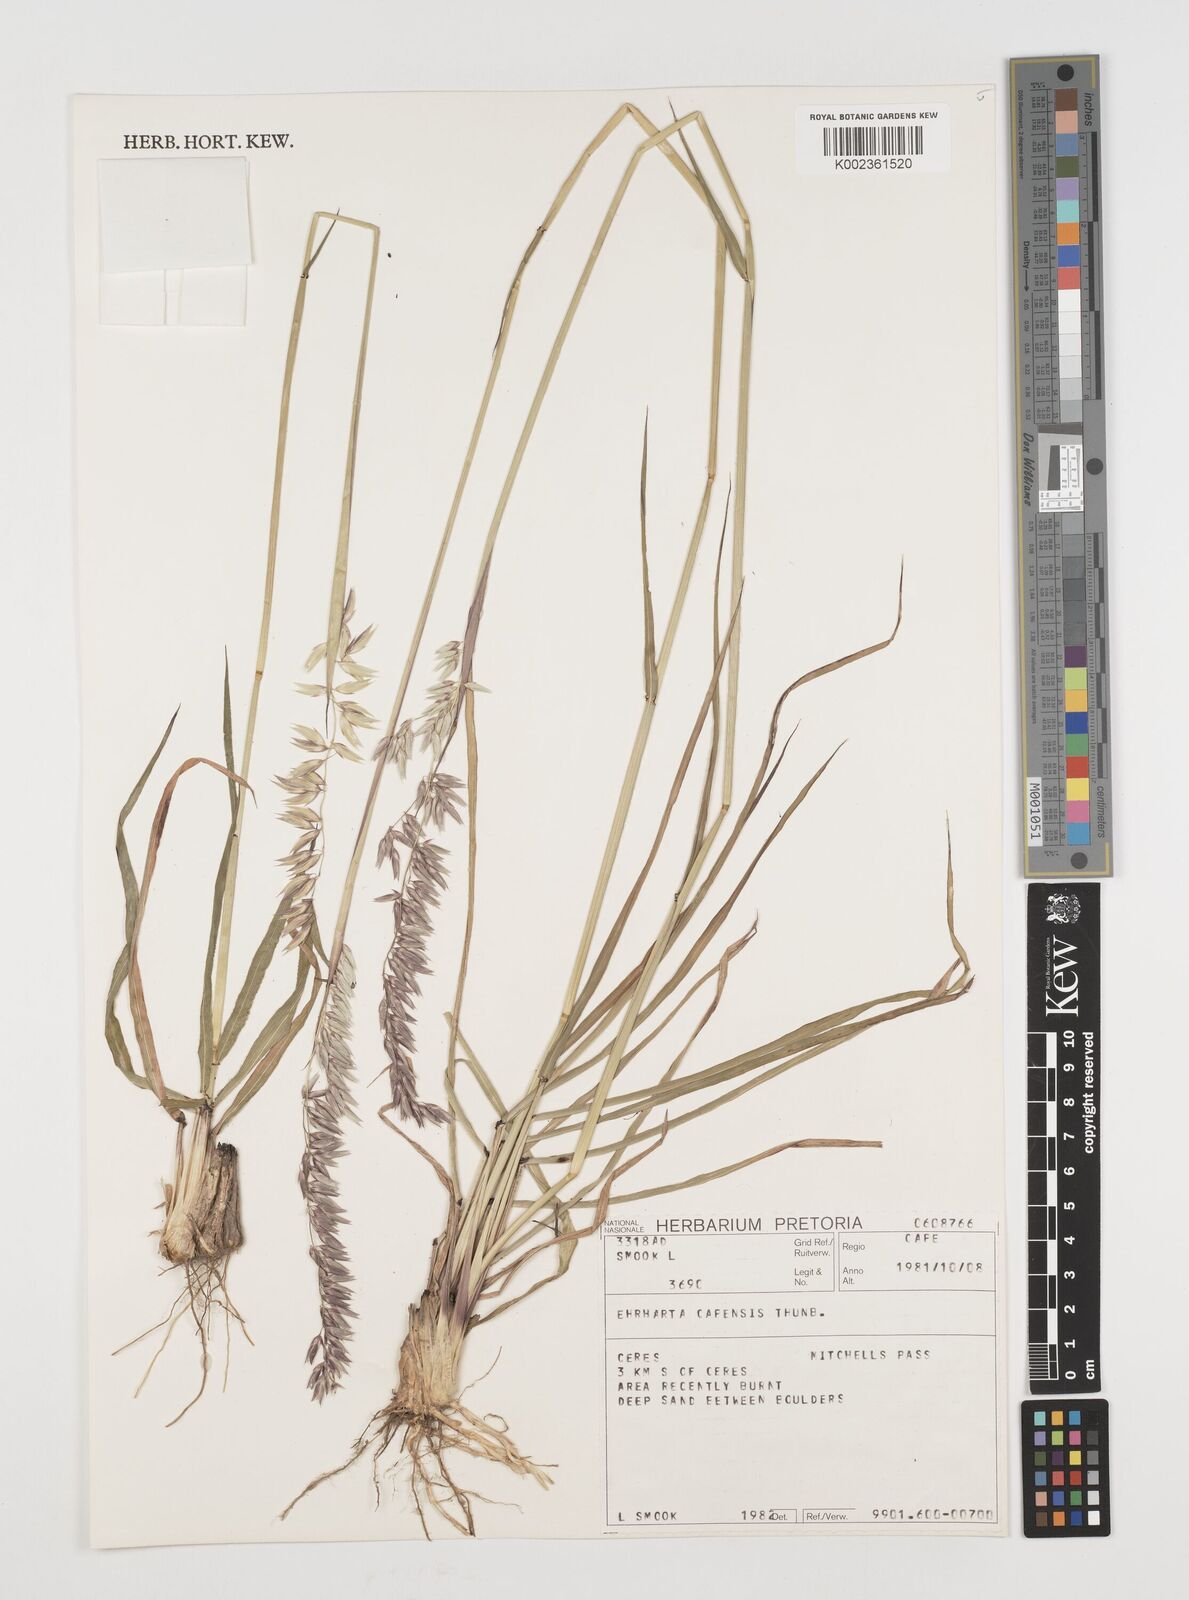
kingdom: Plantae
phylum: Tracheophyta
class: Liliopsida
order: Poales
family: Poaceae
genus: Ehrharta
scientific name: Ehrharta capensis
